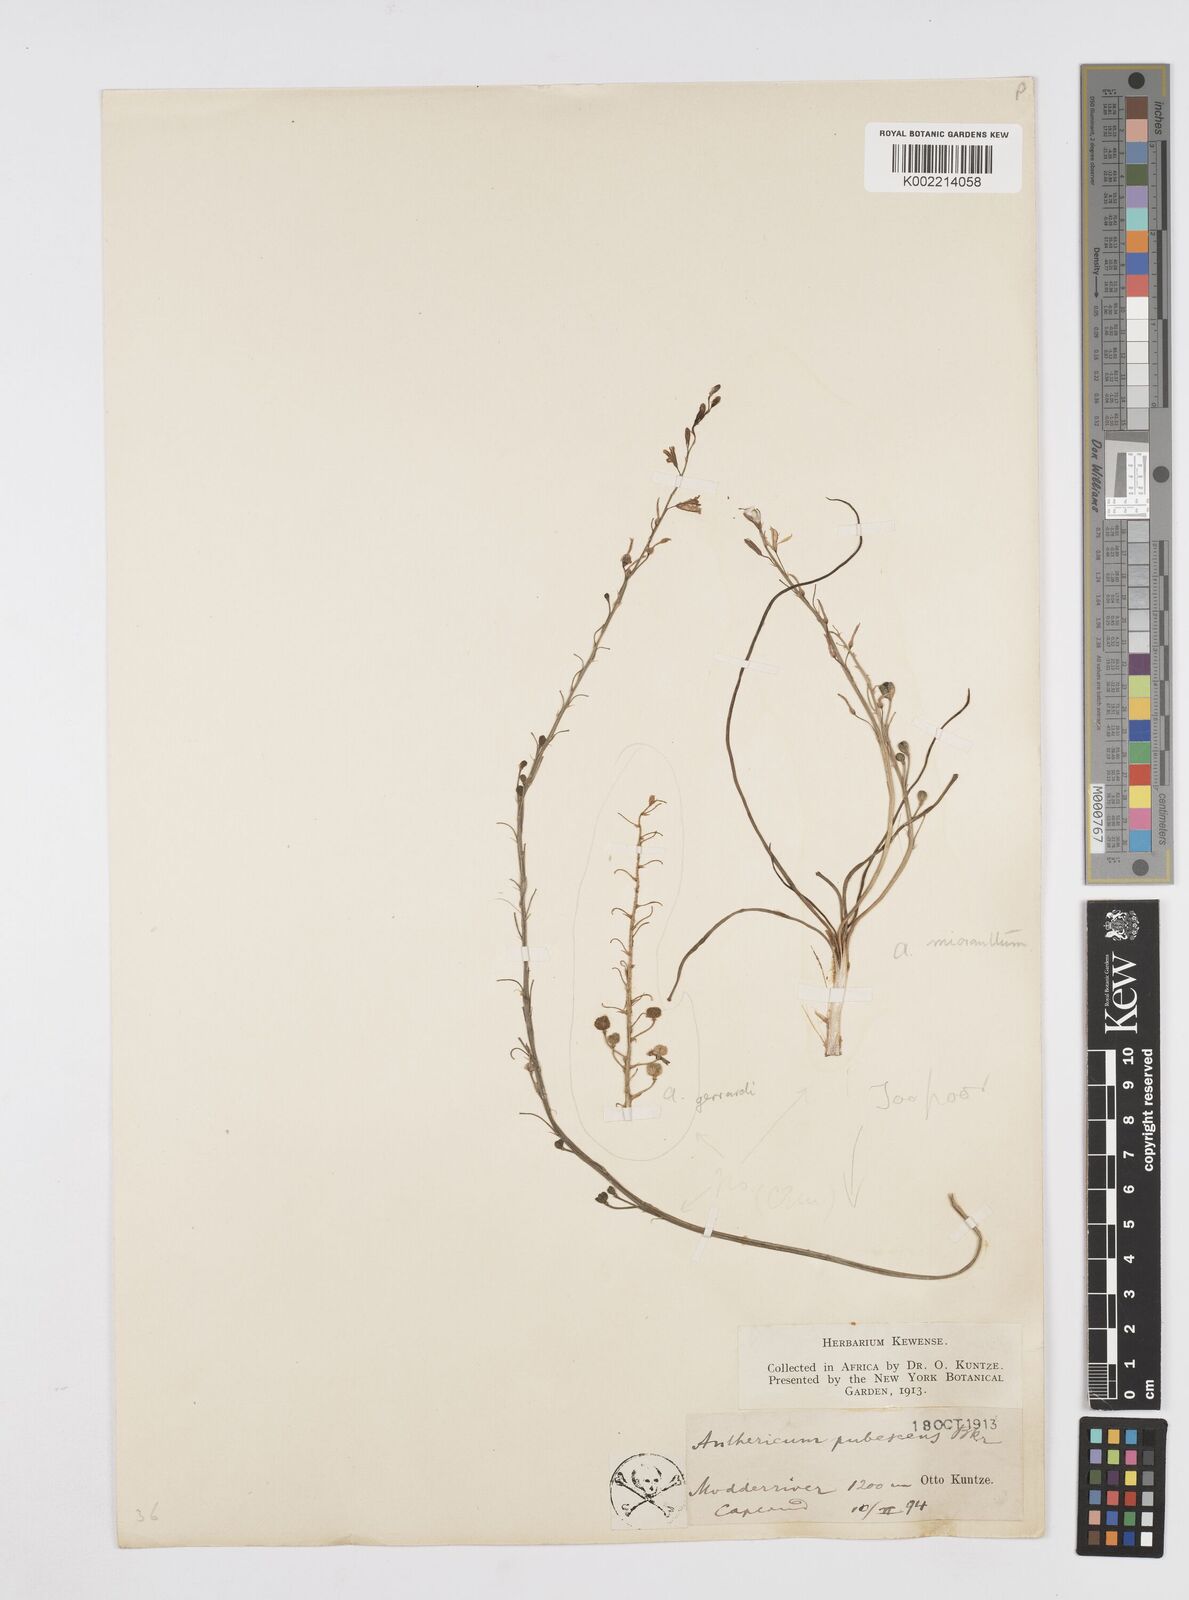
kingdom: Plantae
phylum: Tracheophyta
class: Liliopsida
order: Asparagales
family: Asphodelaceae
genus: Trachyandra
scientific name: Trachyandra
